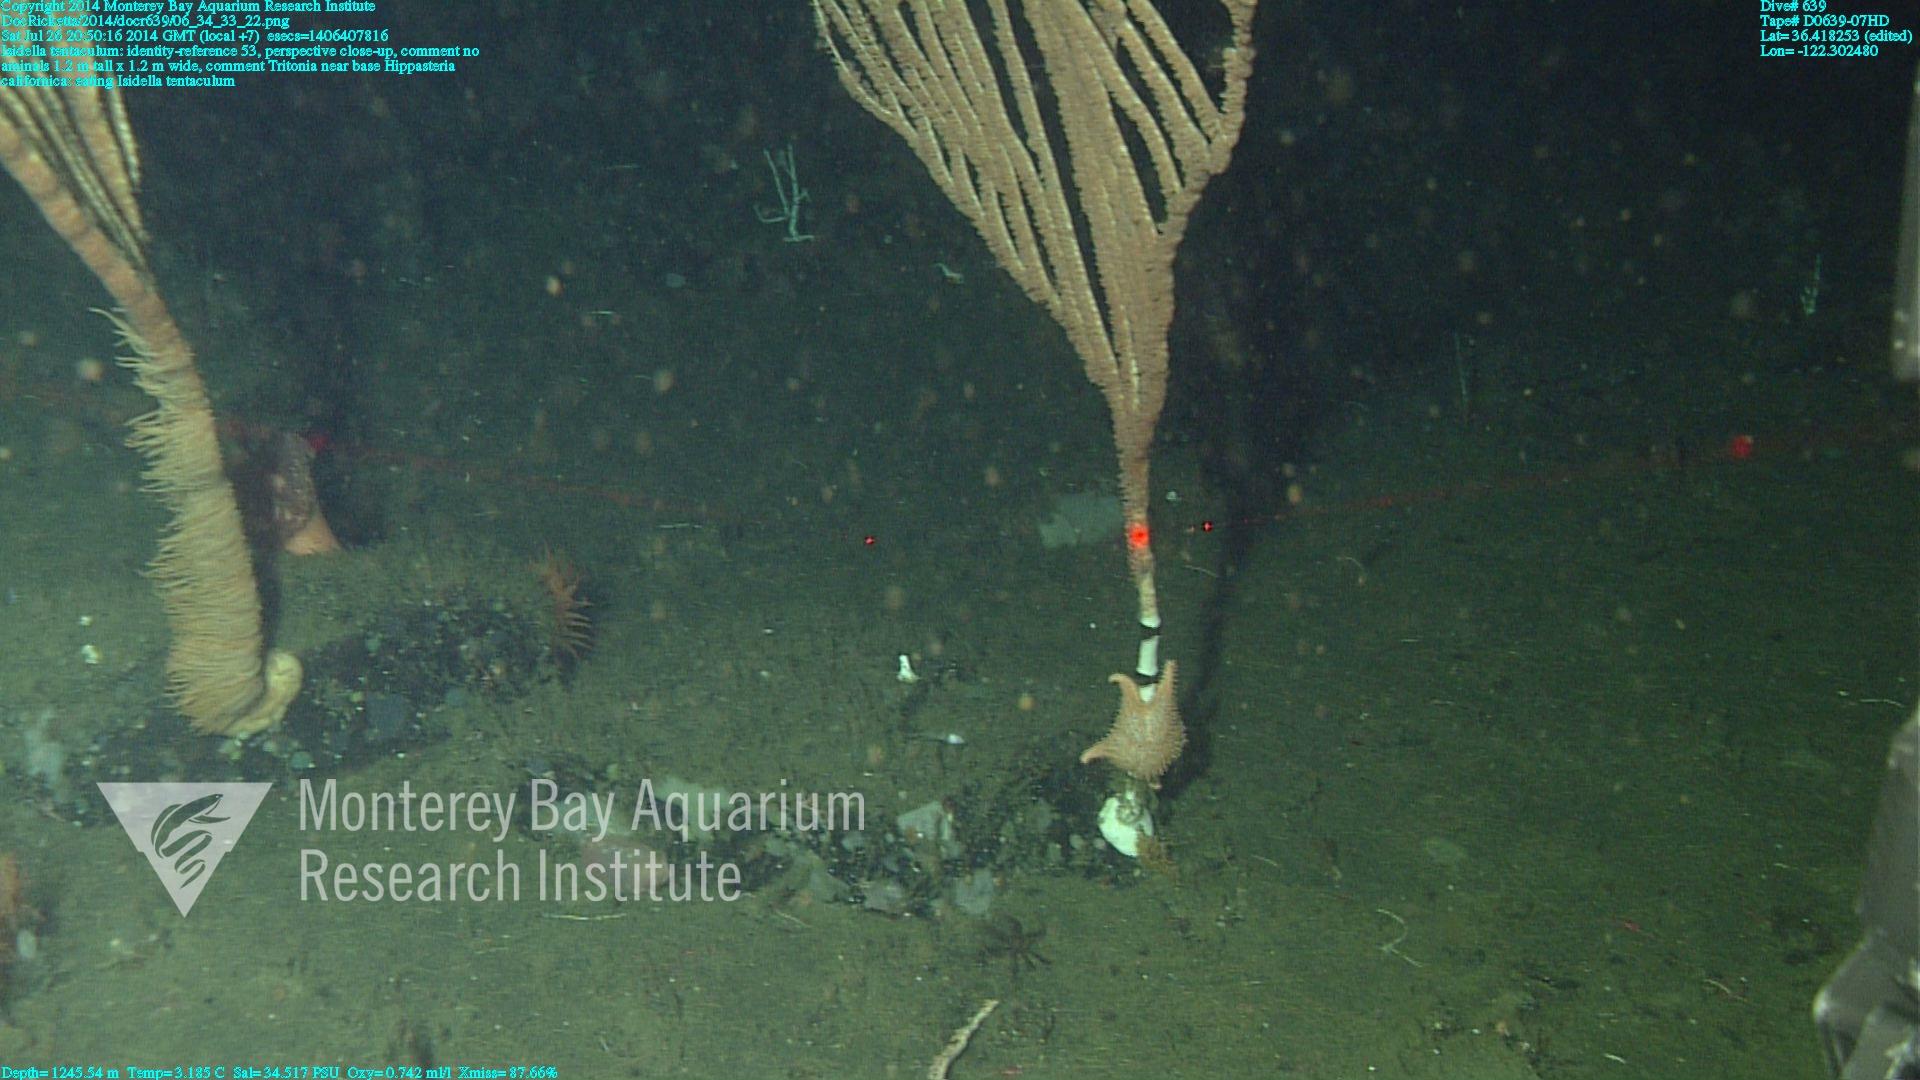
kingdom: Animalia
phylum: Cnidaria
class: Anthozoa
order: Scleralcyonacea
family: Keratoisididae
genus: Isidella
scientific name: Isidella tentaculum
